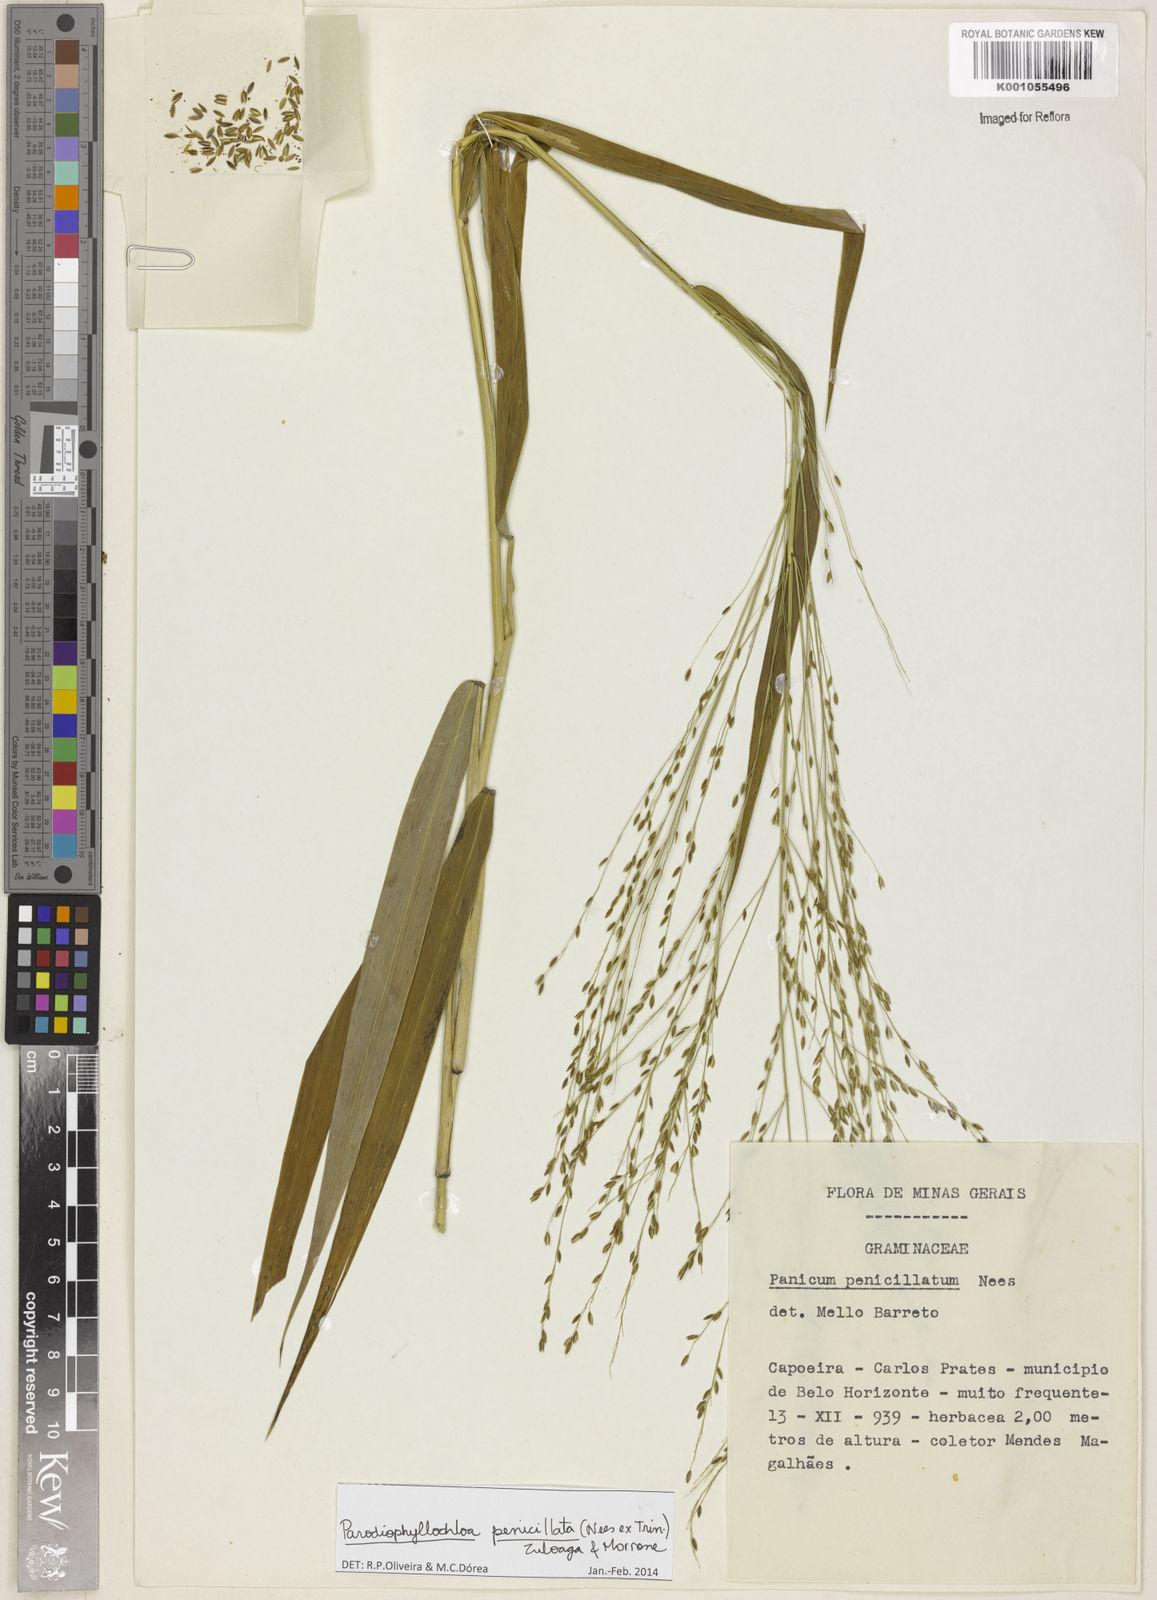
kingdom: Plantae
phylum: Tracheophyta
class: Liliopsida
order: Poales
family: Poaceae
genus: Panicum
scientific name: Panicum
